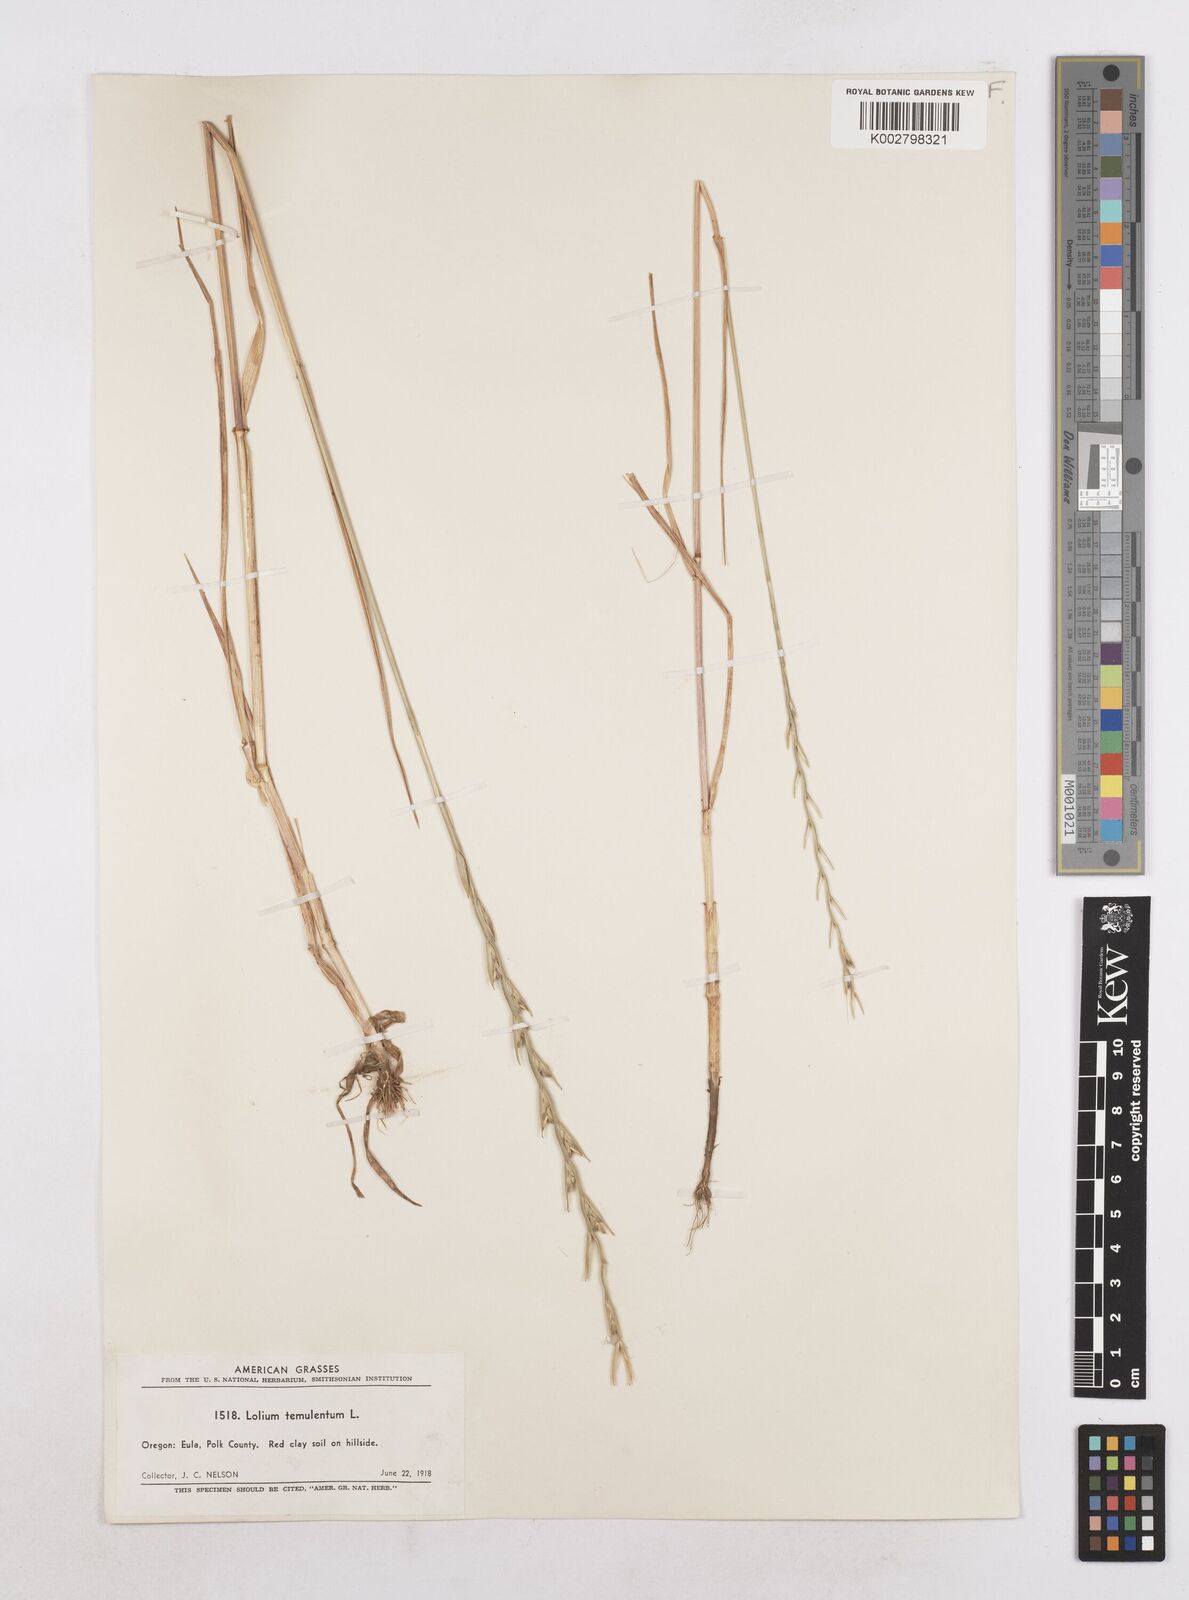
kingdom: Plantae
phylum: Tracheophyta
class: Liliopsida
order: Poales
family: Poaceae
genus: Lolium
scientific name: Lolium temulentum
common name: Darnel
